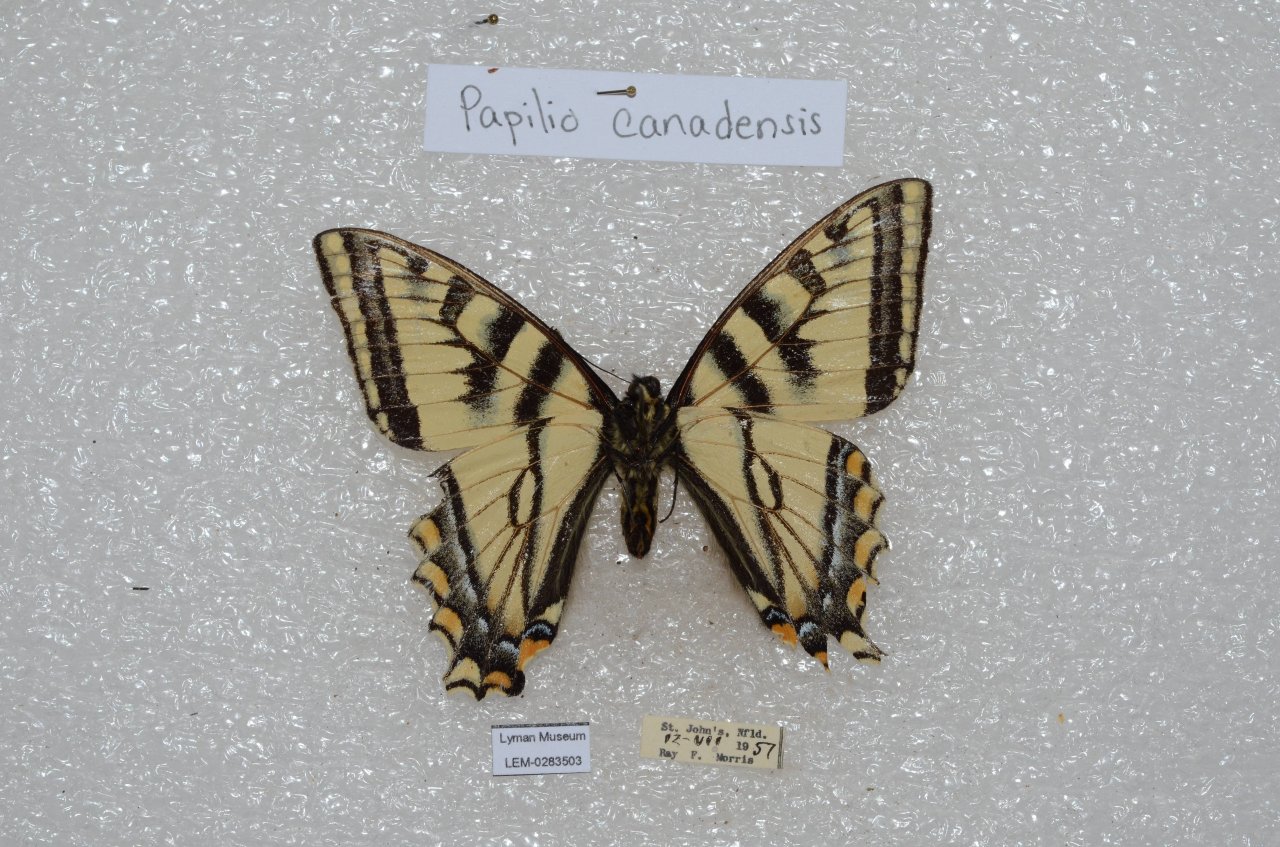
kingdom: Animalia
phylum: Arthropoda
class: Insecta
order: Lepidoptera
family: Papilionidae
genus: Pterourus
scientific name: Pterourus canadensis
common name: Canadian Tiger Swallowtail
